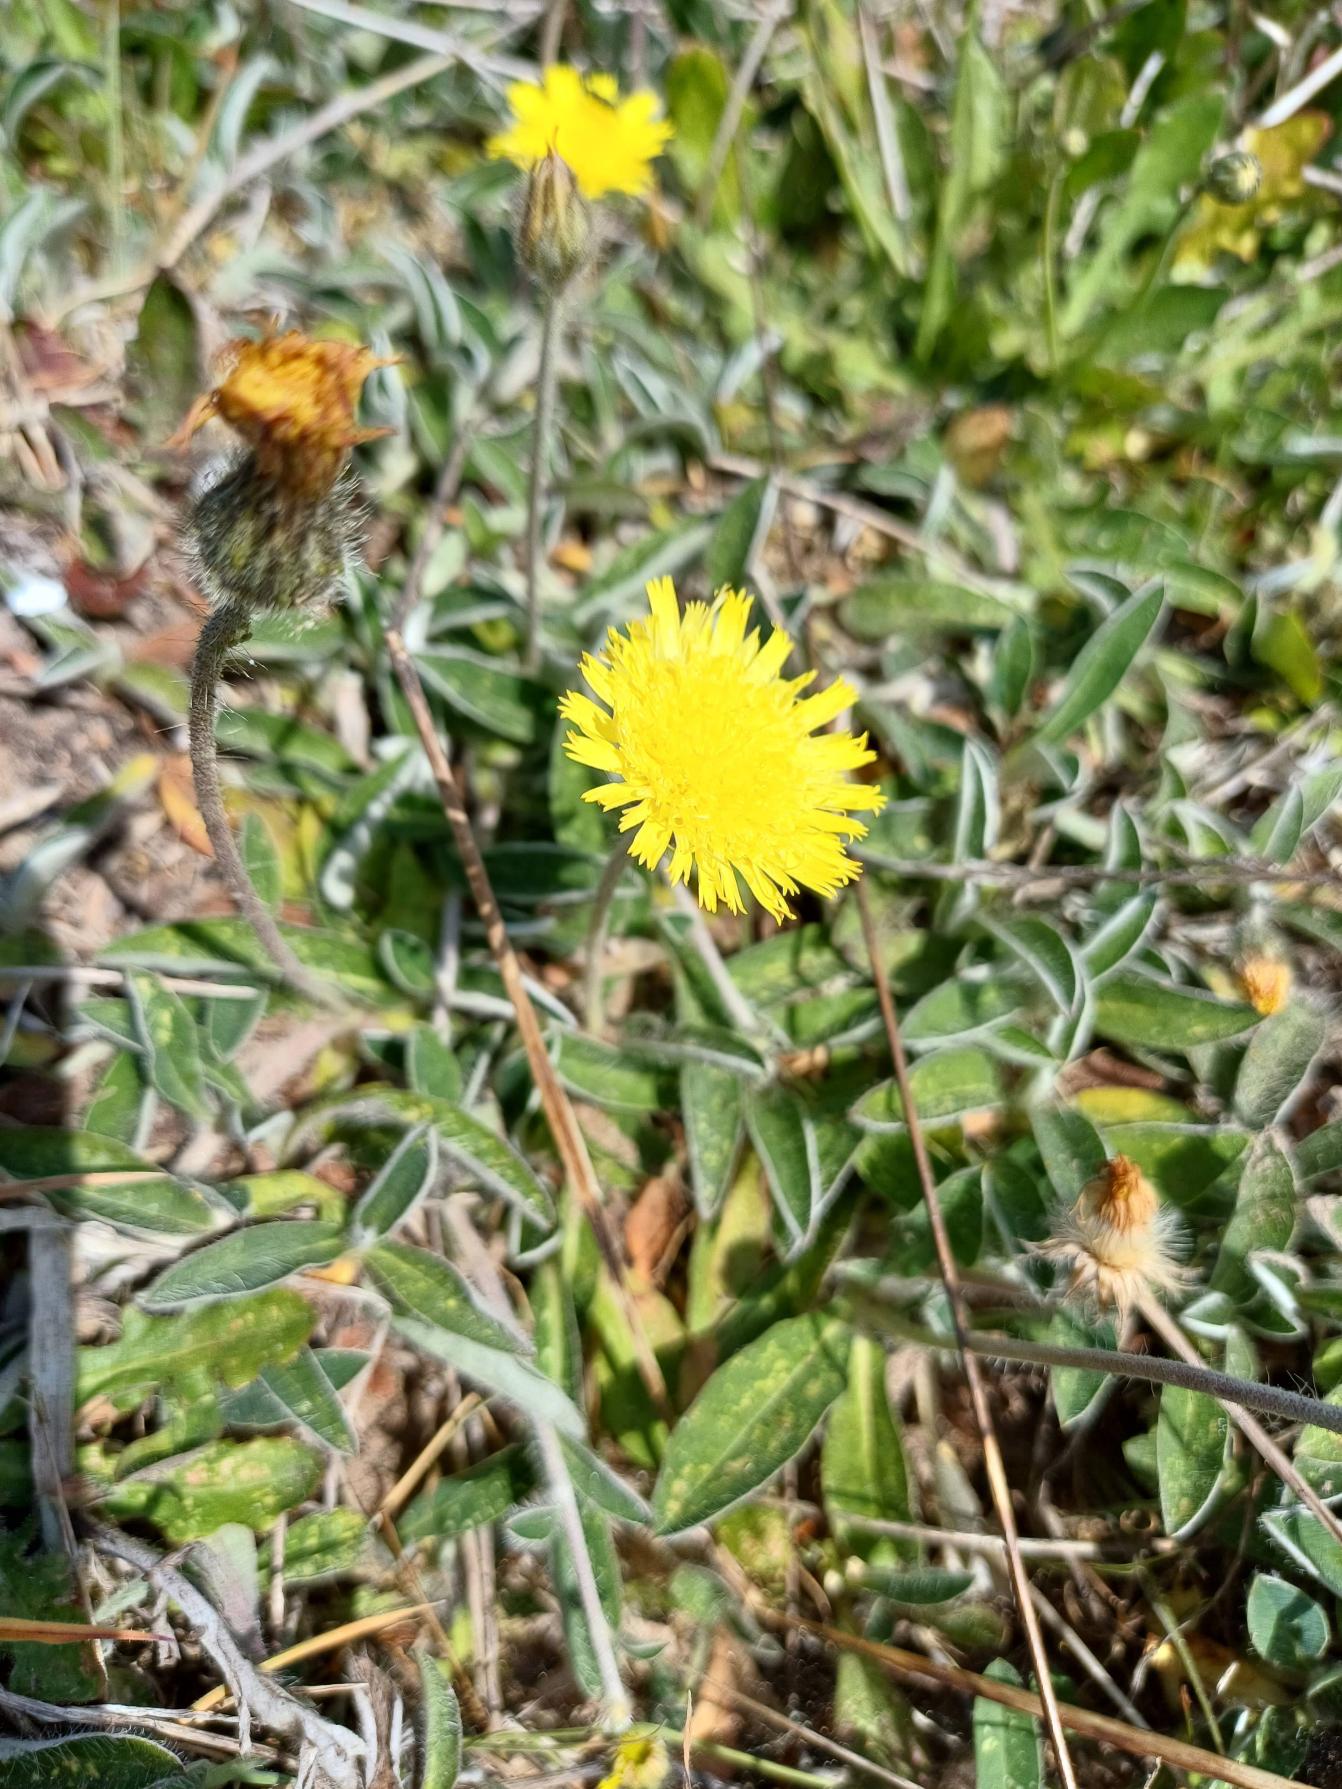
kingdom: Plantae
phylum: Tracheophyta
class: Magnoliopsida
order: Asterales
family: Asteraceae
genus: Pilosella
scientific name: Pilosella officinarum
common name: Håret høgeurt
